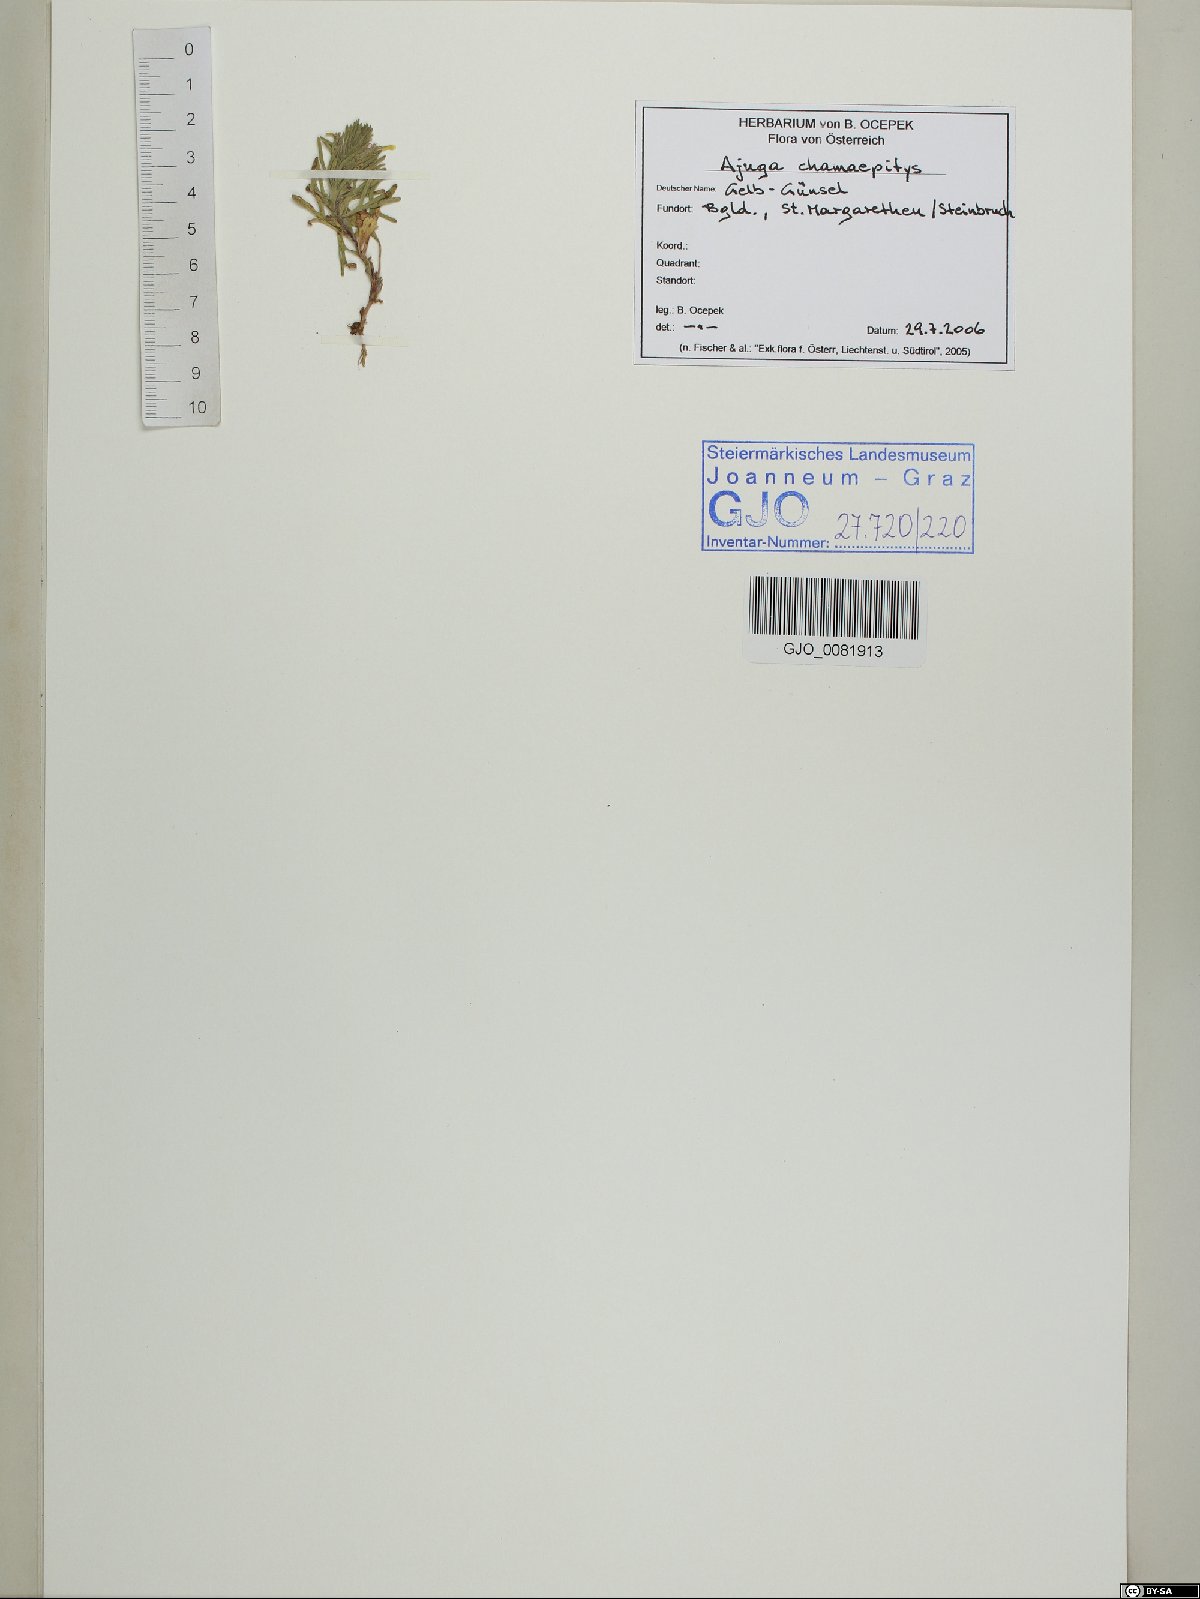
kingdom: Plantae
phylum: Tracheophyta
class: Magnoliopsida
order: Lamiales
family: Lamiaceae
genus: Ajuga
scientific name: Ajuga chamaepitys
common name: Ground-pine
